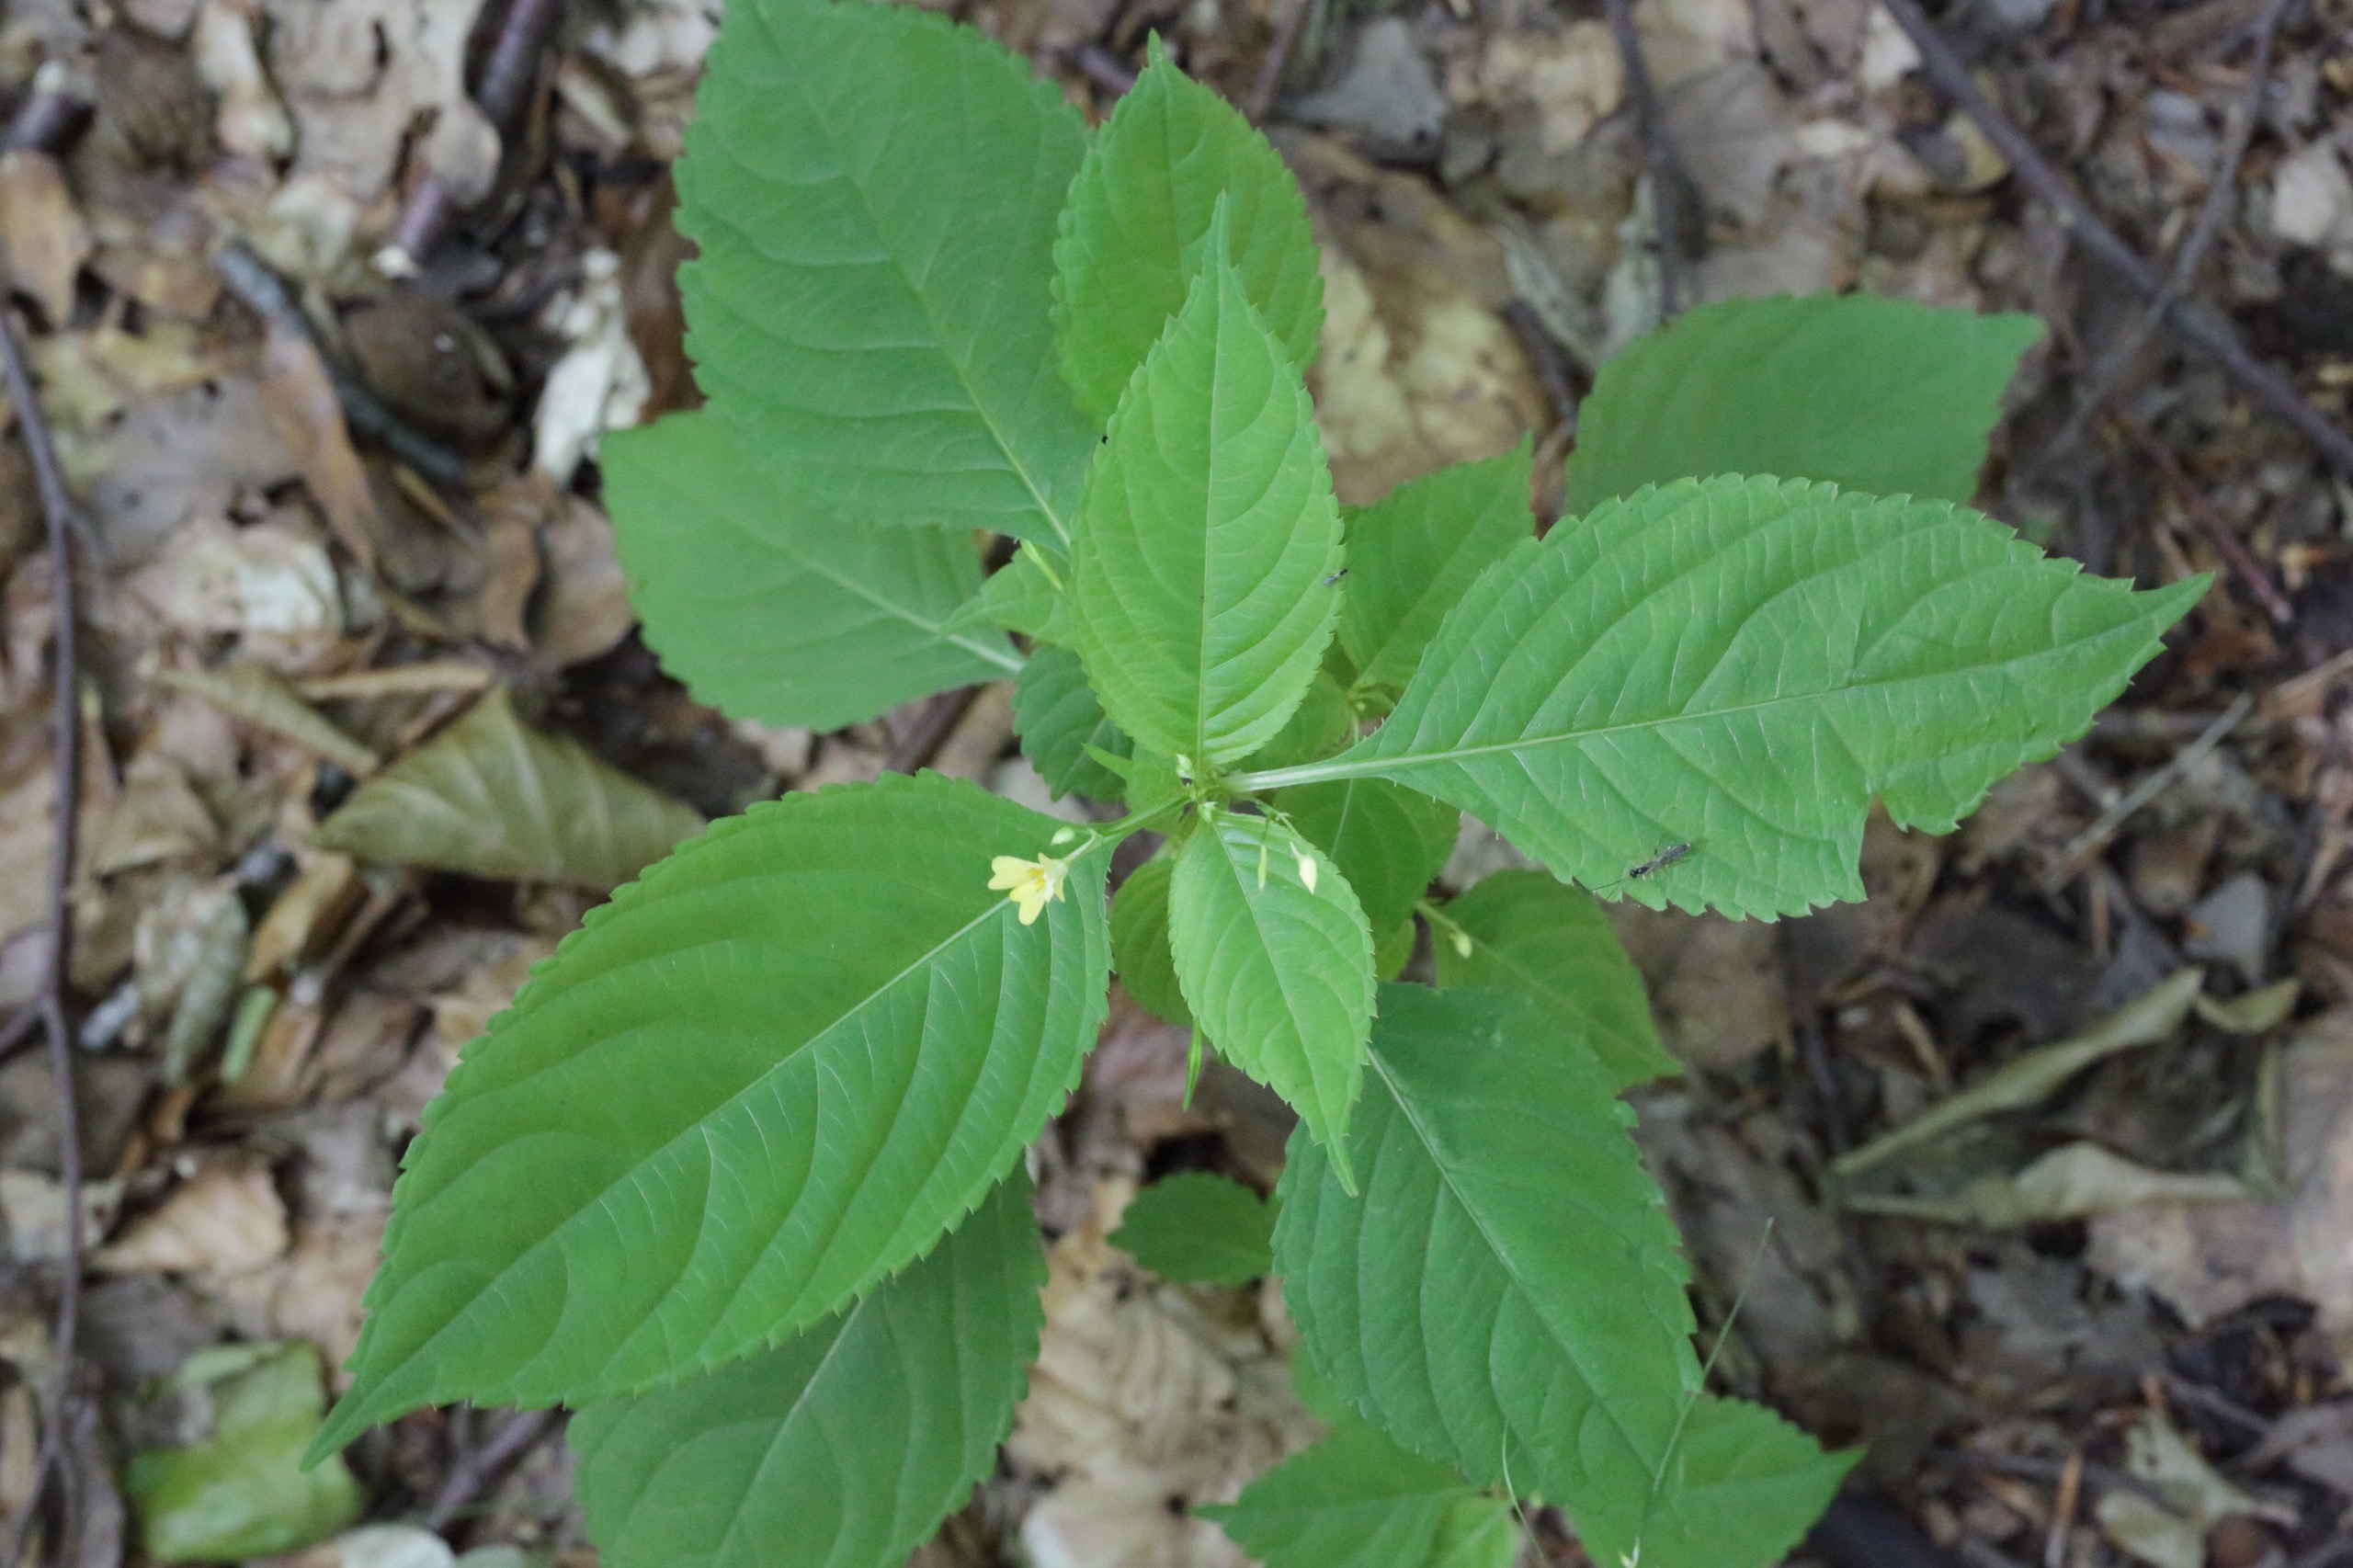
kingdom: Plantae
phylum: Tracheophyta
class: Magnoliopsida
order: Ericales
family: Balsaminaceae
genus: Impatiens
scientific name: Impatiens parviflora
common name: Småblomstret balsamin
